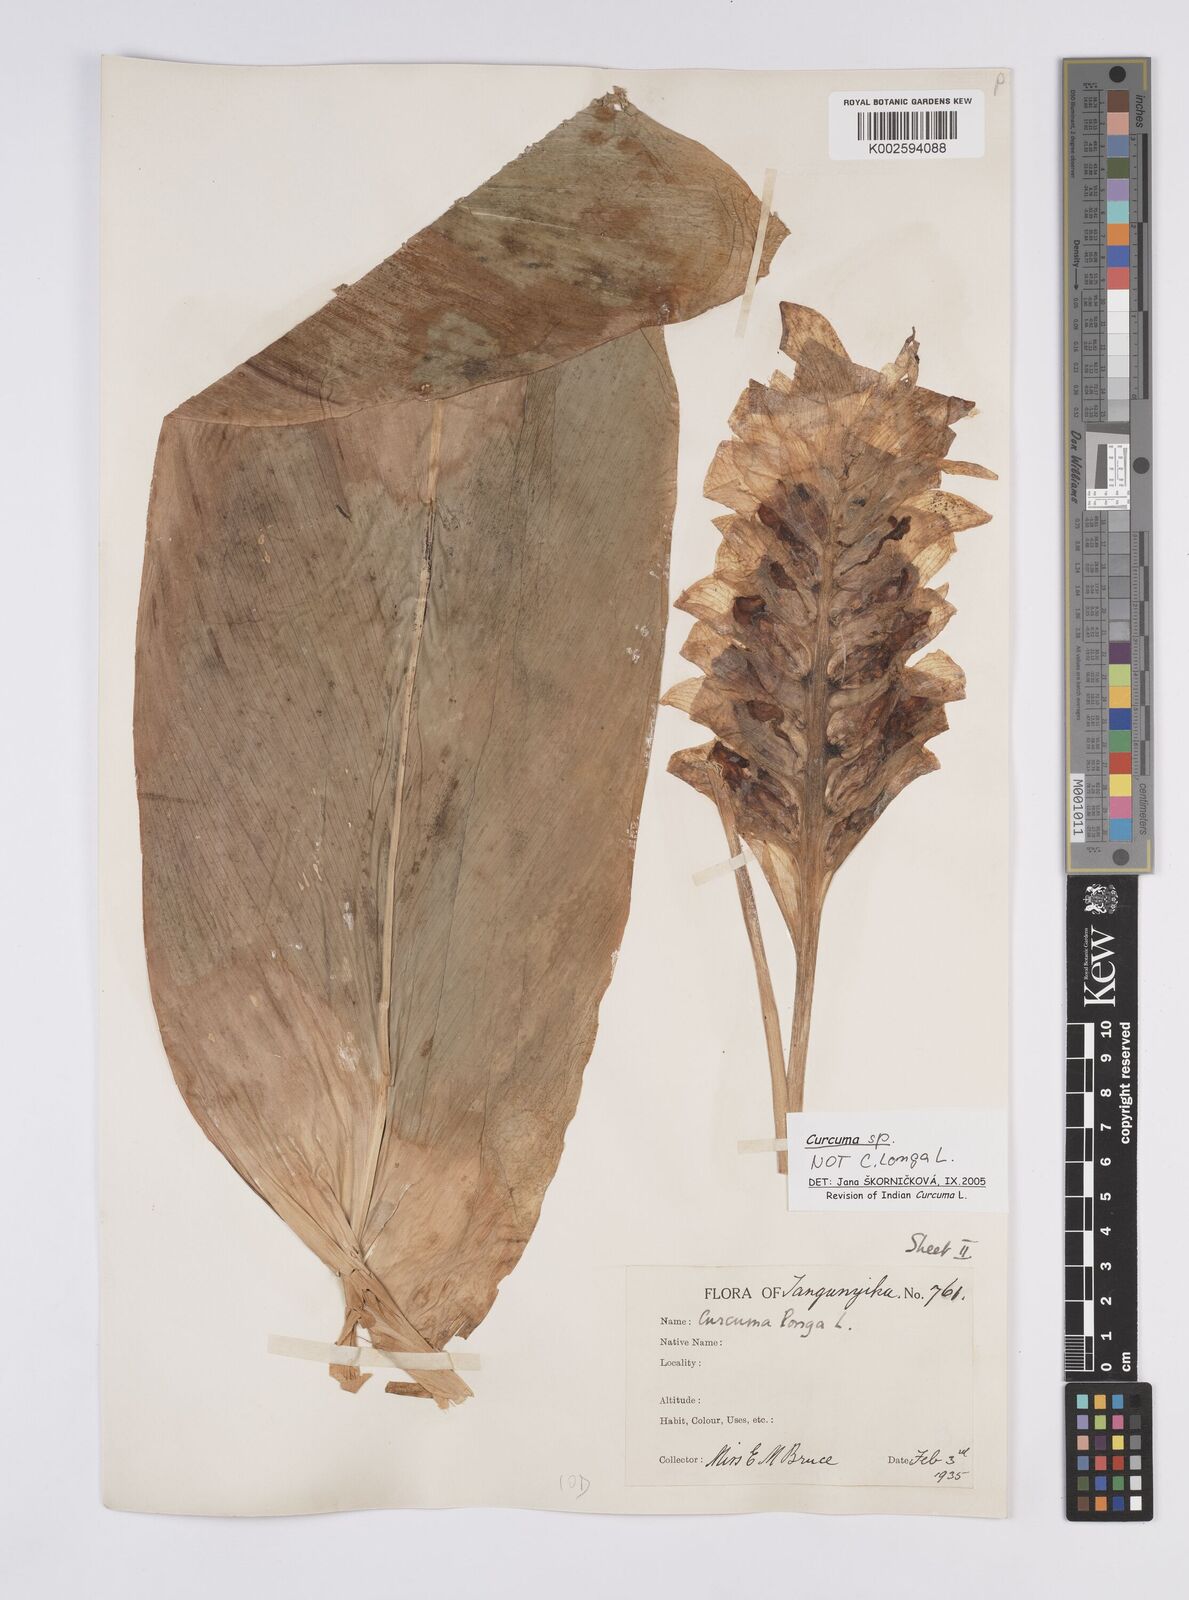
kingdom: Plantae
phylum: Tracheophyta
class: Liliopsida
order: Zingiberales
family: Zingiberaceae
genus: Curcuma
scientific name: Curcuma
